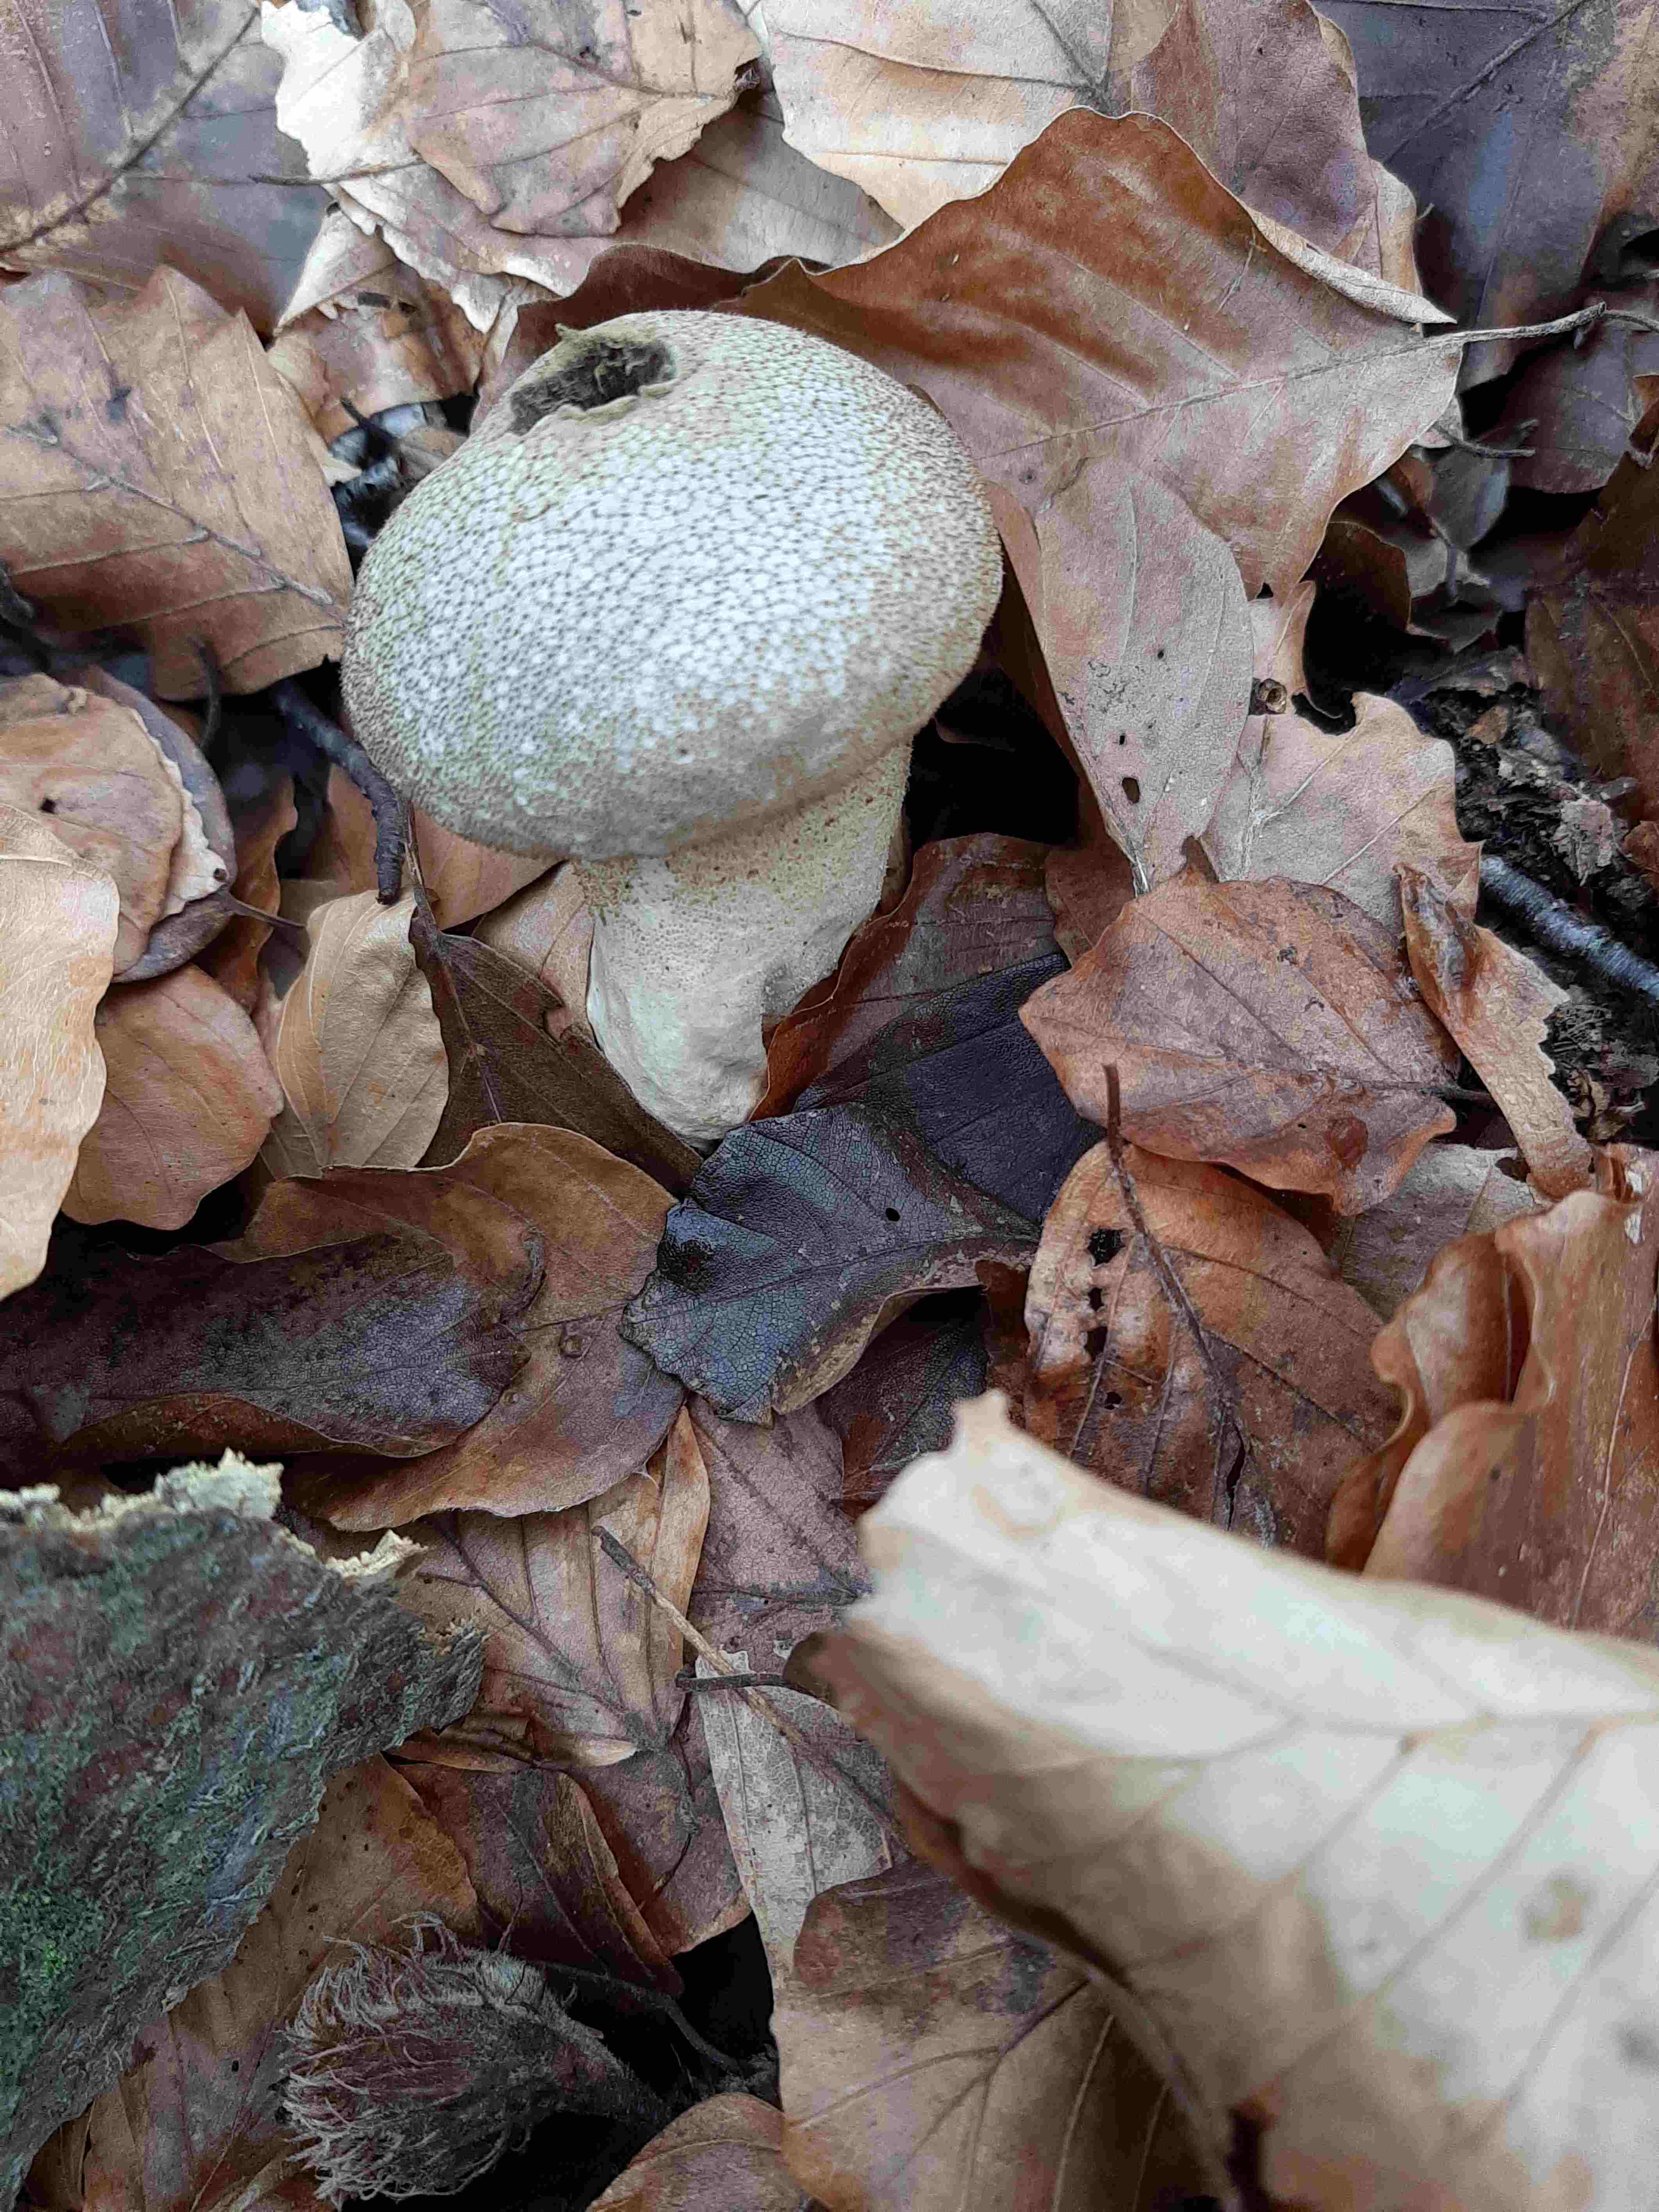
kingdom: Fungi
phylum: Basidiomycota
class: Agaricomycetes
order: Agaricales
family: Lycoperdaceae
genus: Lycoperdon
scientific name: Lycoperdon perlatum
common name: krystal-støvbold
